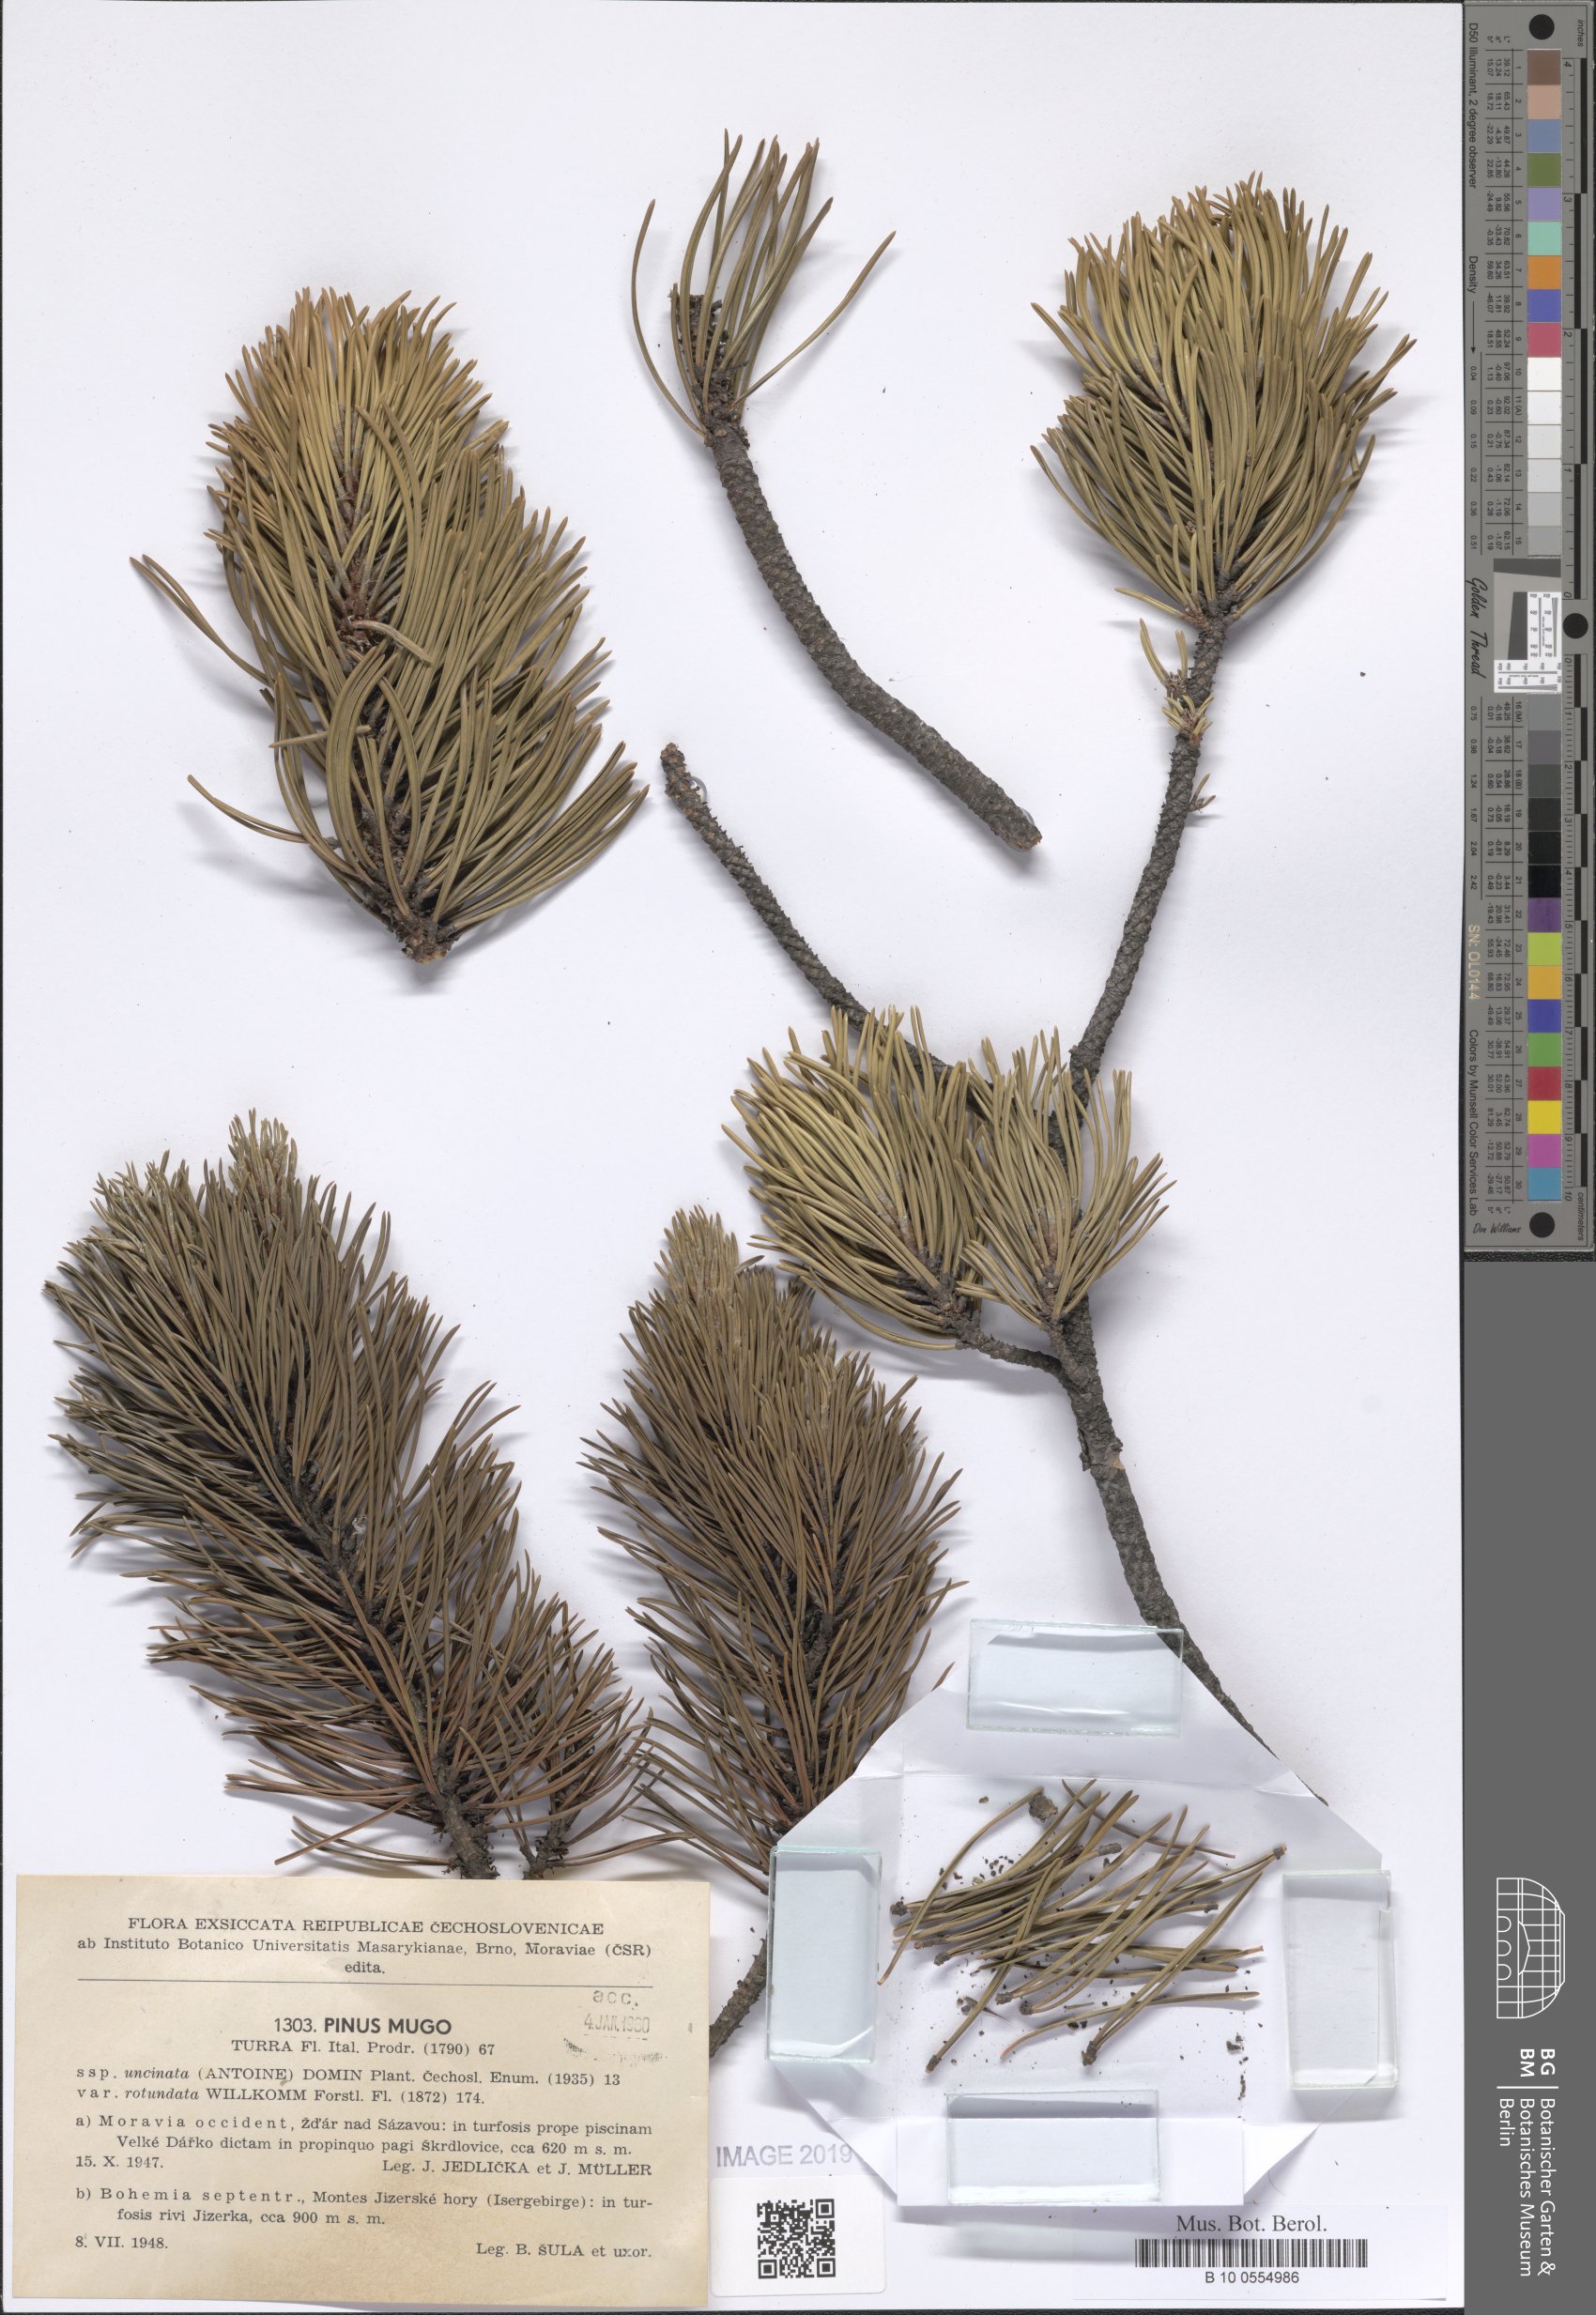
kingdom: Plantae
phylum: Tracheophyta
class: Pinopsida
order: Pinales
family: Pinaceae
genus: Pinus
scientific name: Pinus mugo
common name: Mugo pine
